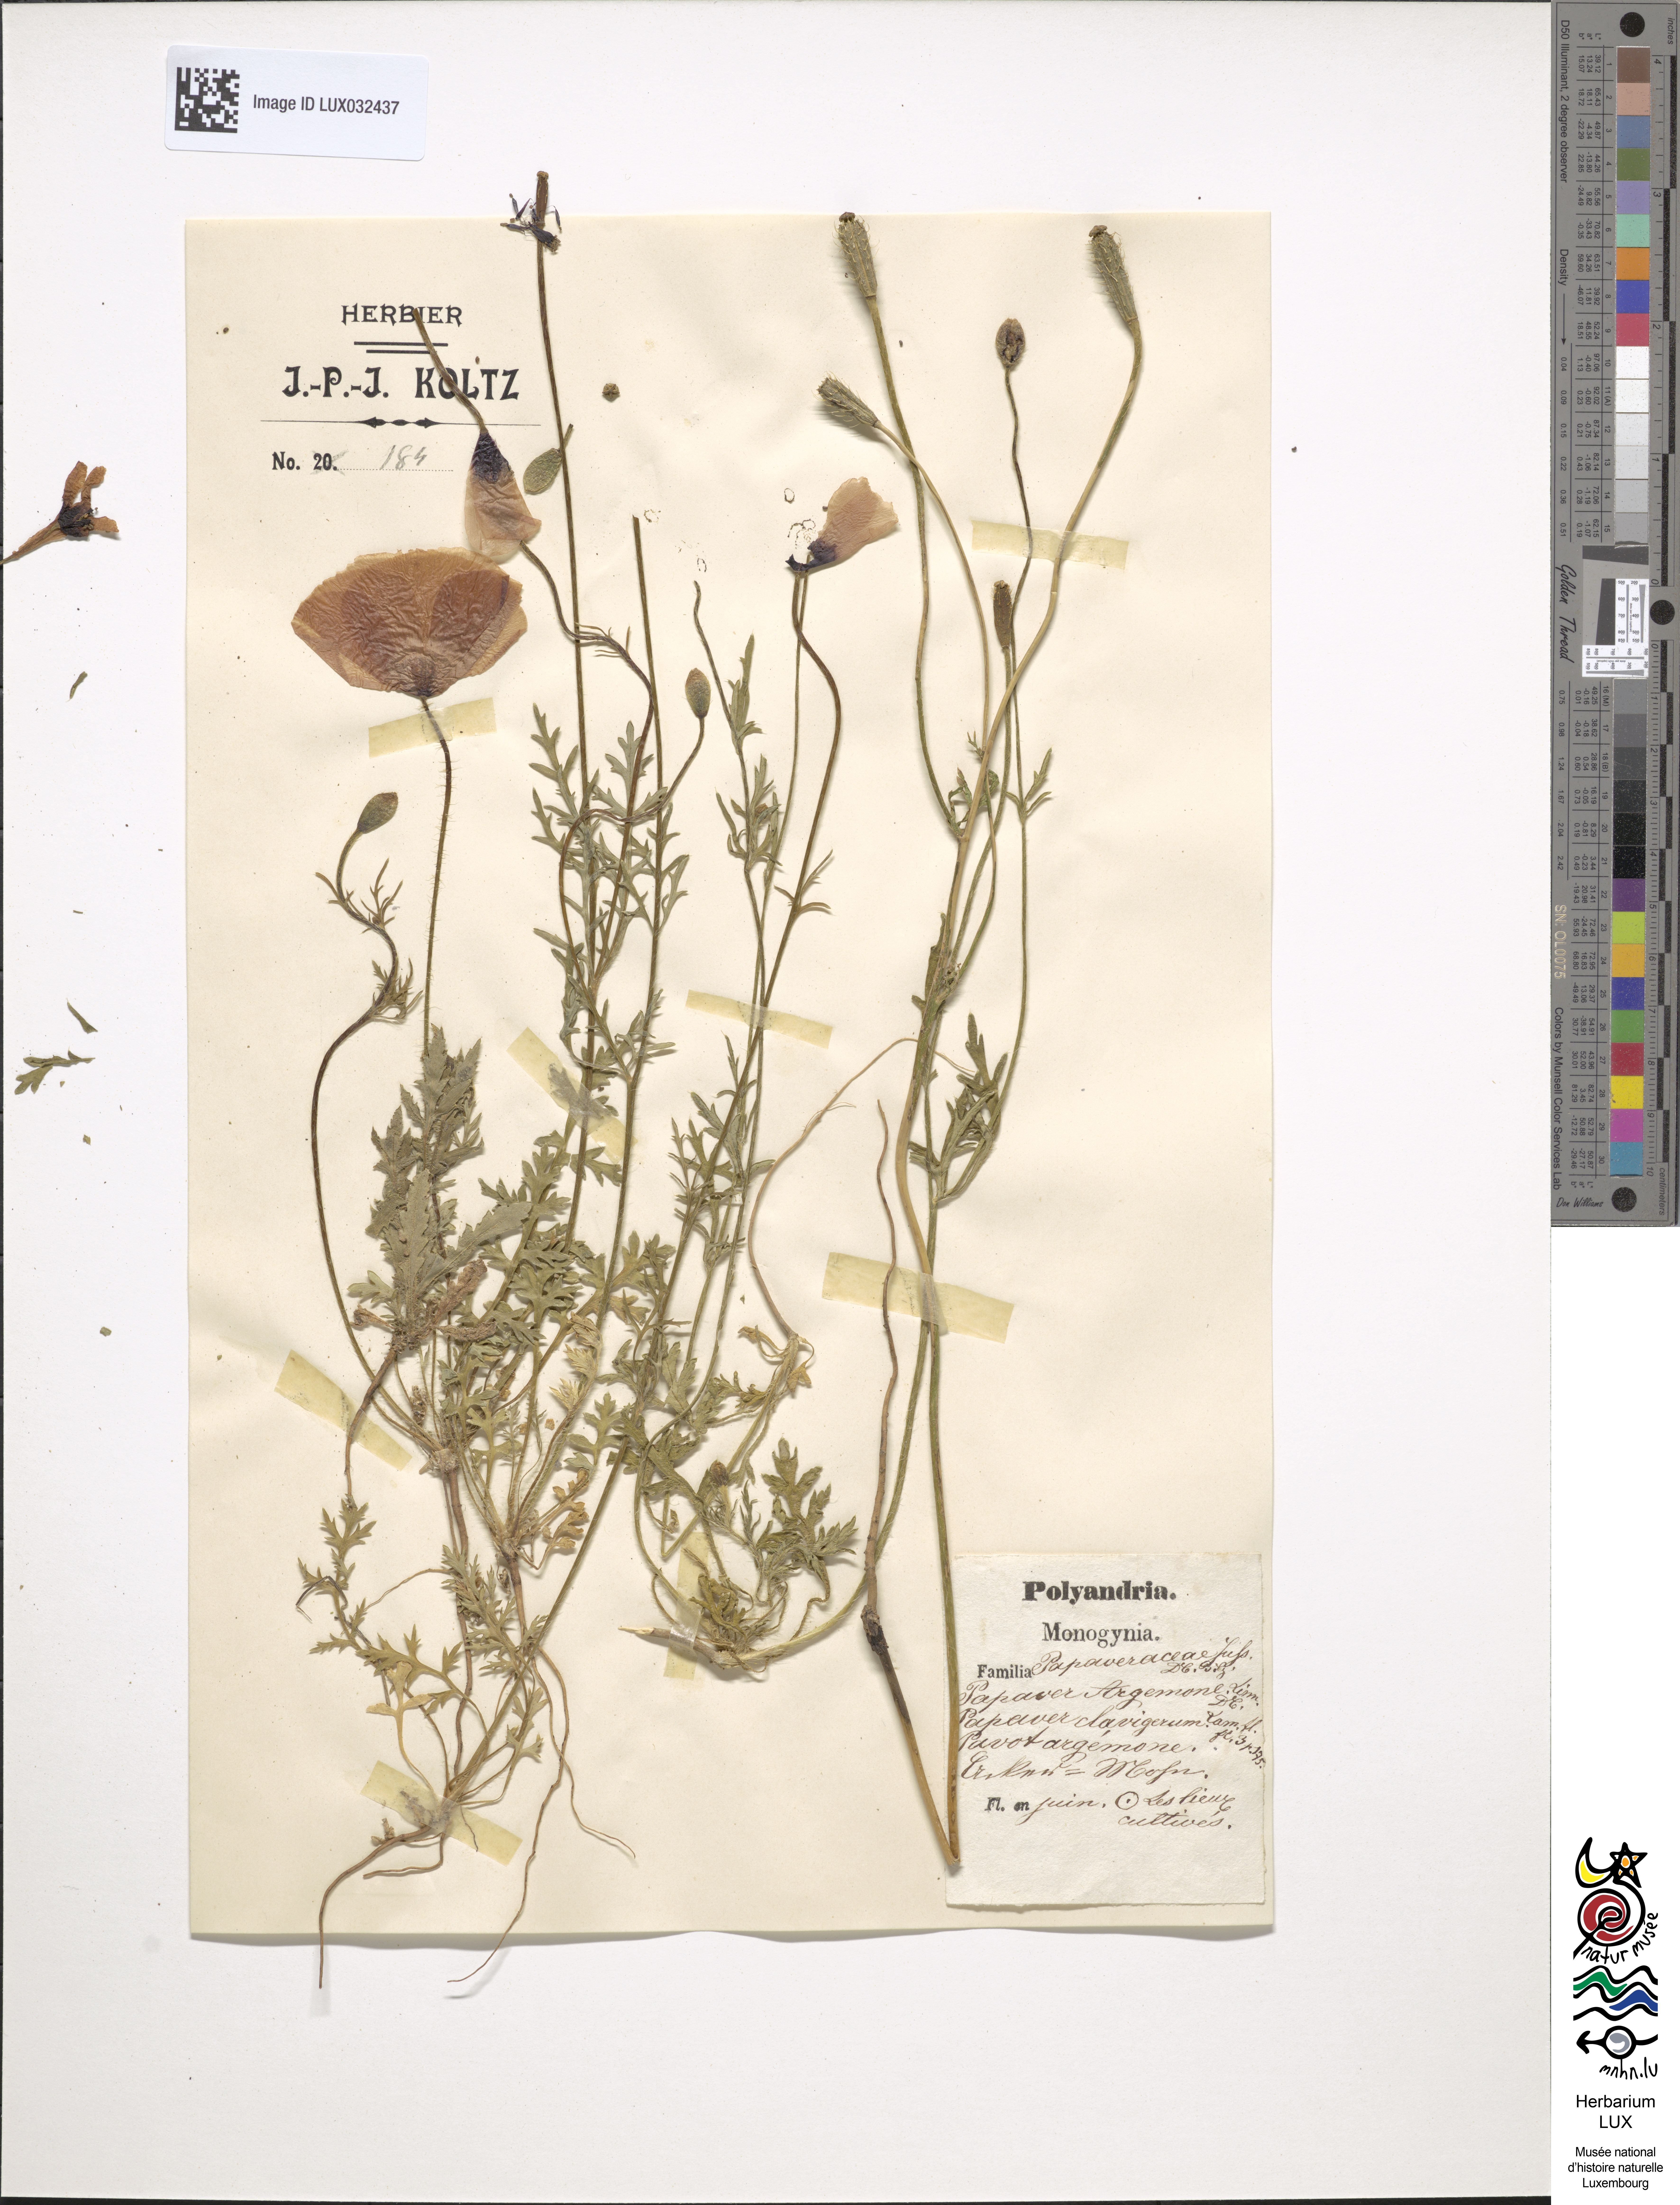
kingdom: Plantae
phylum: Tracheophyta
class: Magnoliopsida
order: Ranunculales
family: Papaveraceae
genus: Roemeria
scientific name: Roemeria argemone
